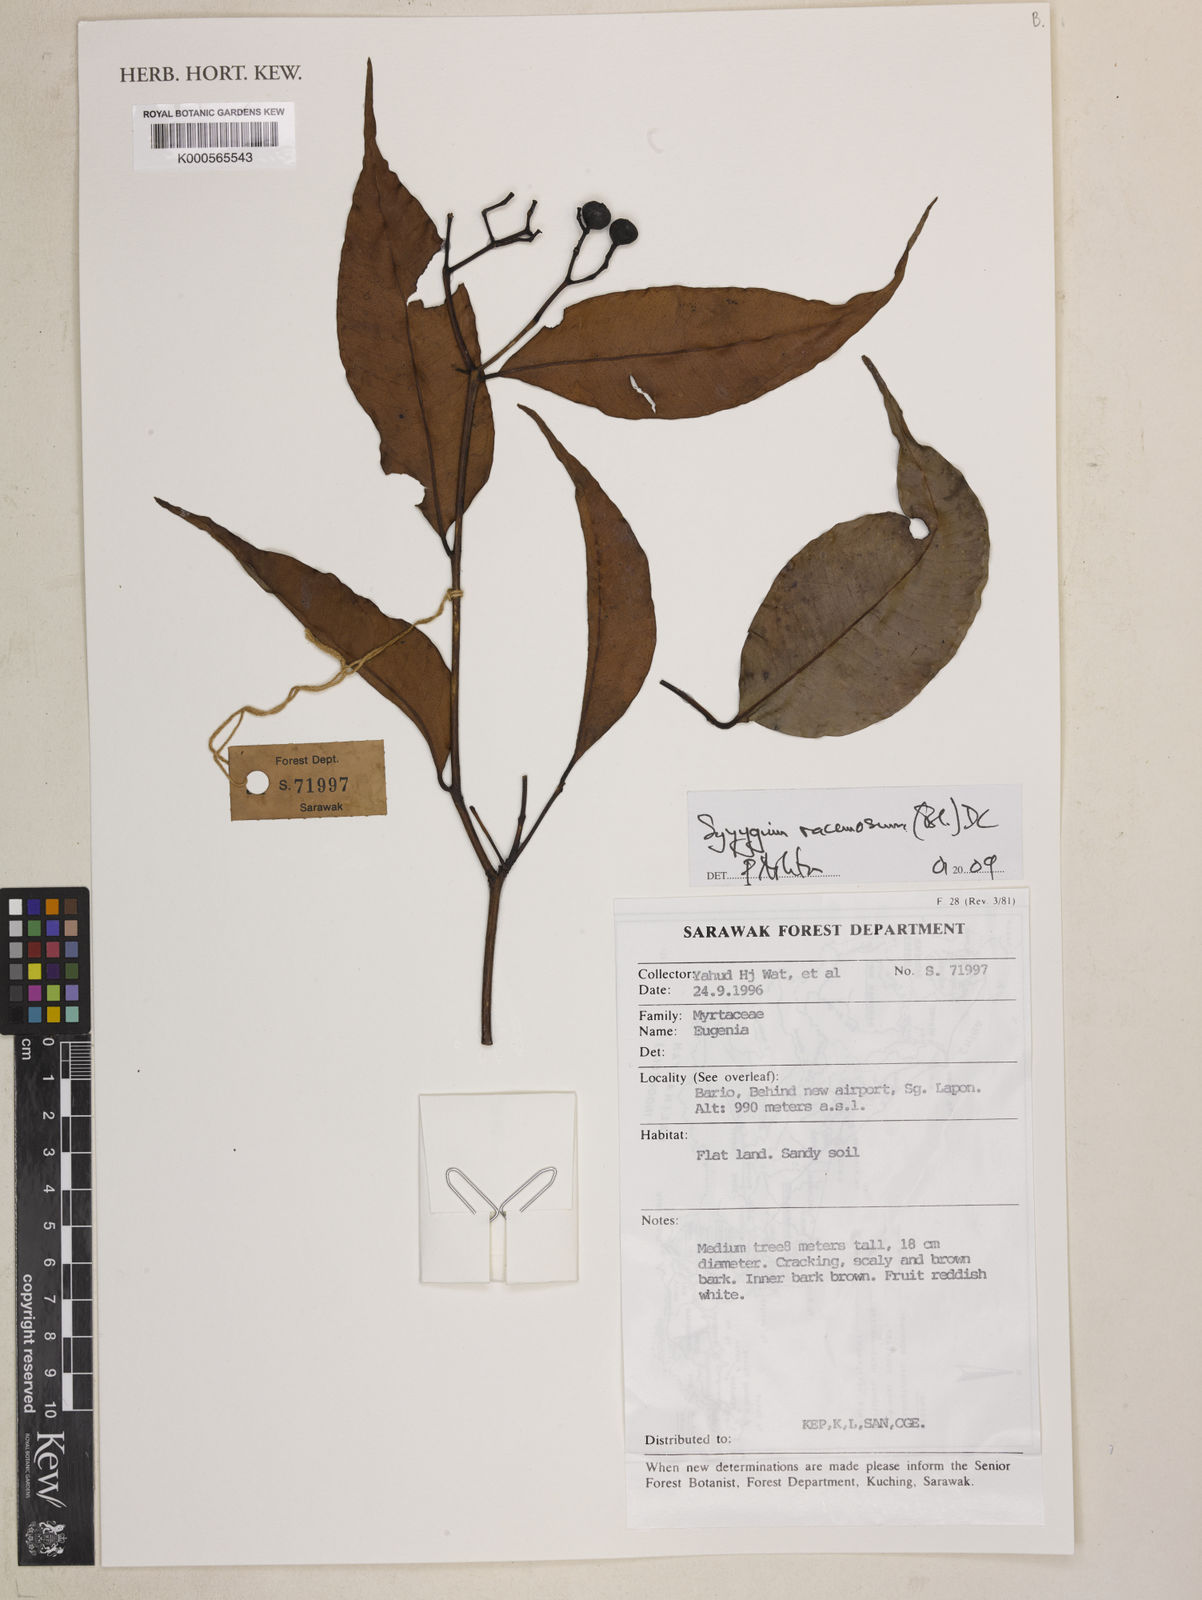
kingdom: Plantae
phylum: Tracheophyta
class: Magnoliopsida
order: Myrtales
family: Myrtaceae
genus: Syzygium
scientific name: Syzygium racemosum
